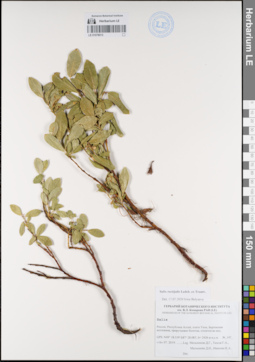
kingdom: Plantae
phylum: Tracheophyta
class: Magnoliopsida
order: Malpighiales
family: Salicaceae
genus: Salix
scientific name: Salix rectijulis
